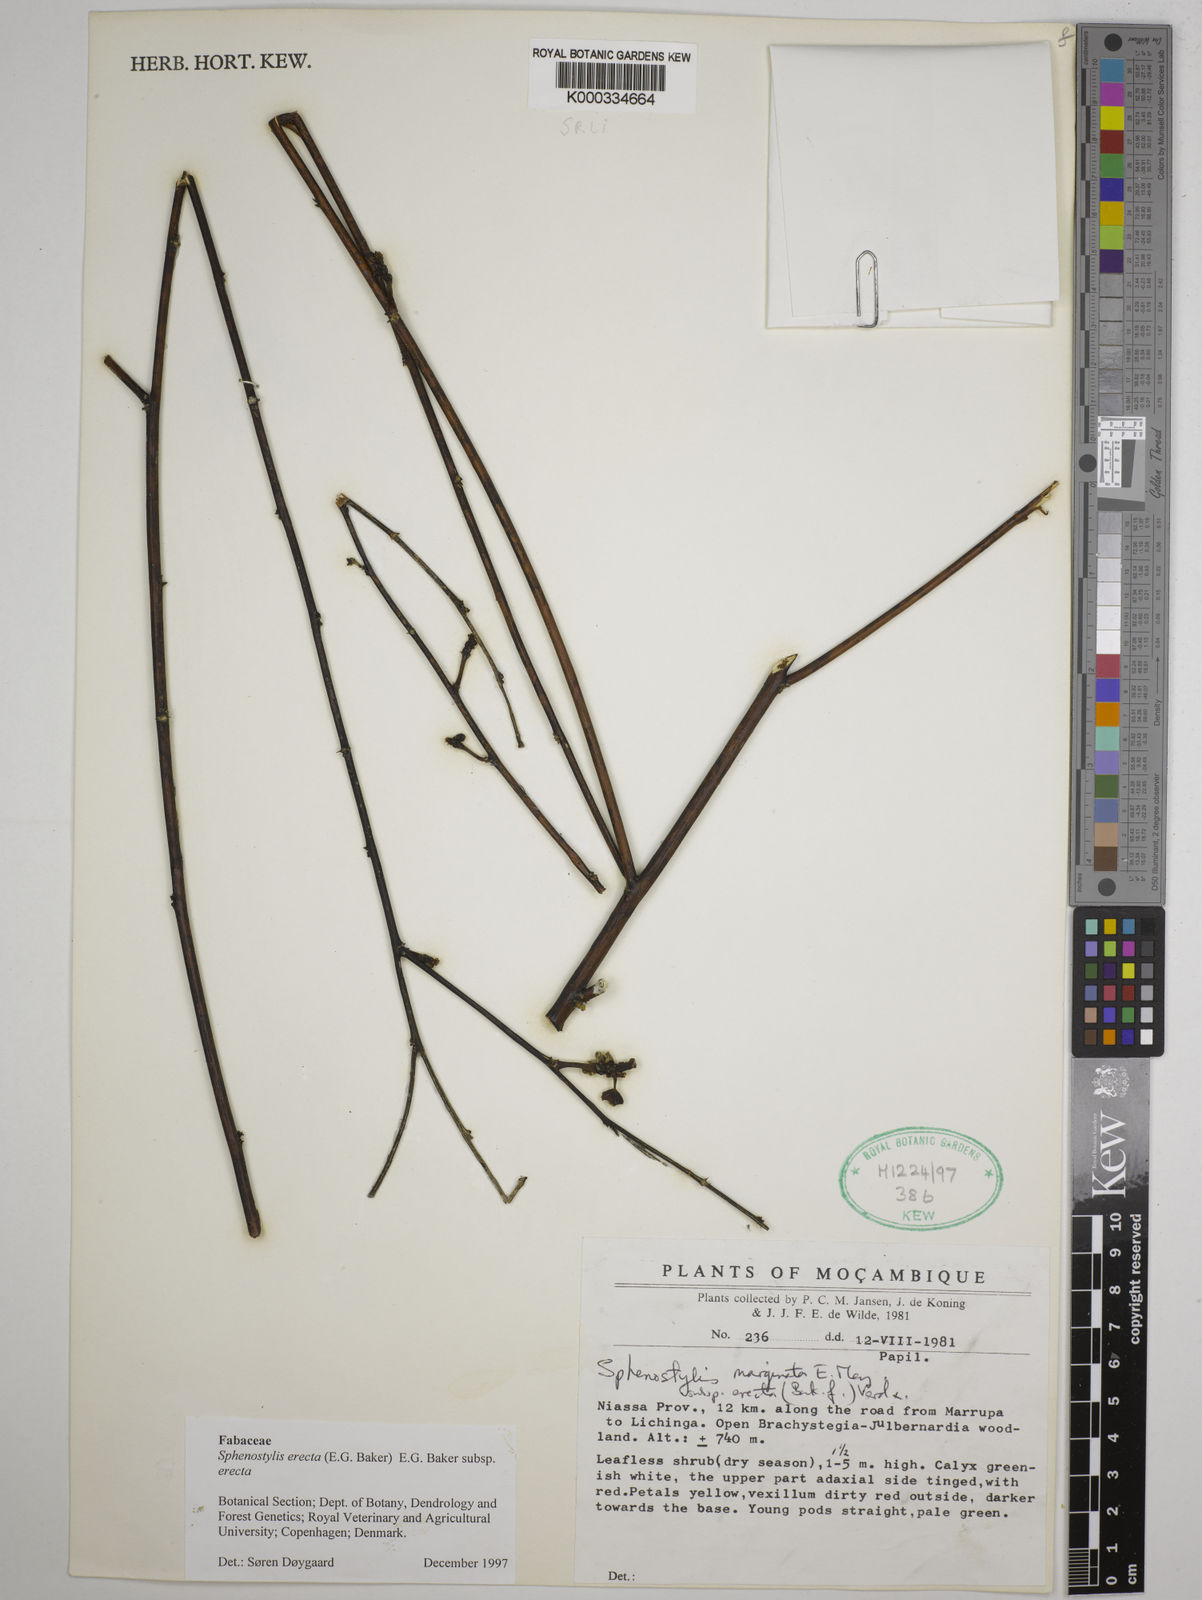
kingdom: Plantae
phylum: Tracheophyta
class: Magnoliopsida
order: Fabales
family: Fabaceae
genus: Sphenostylis
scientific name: Sphenostylis erecta
